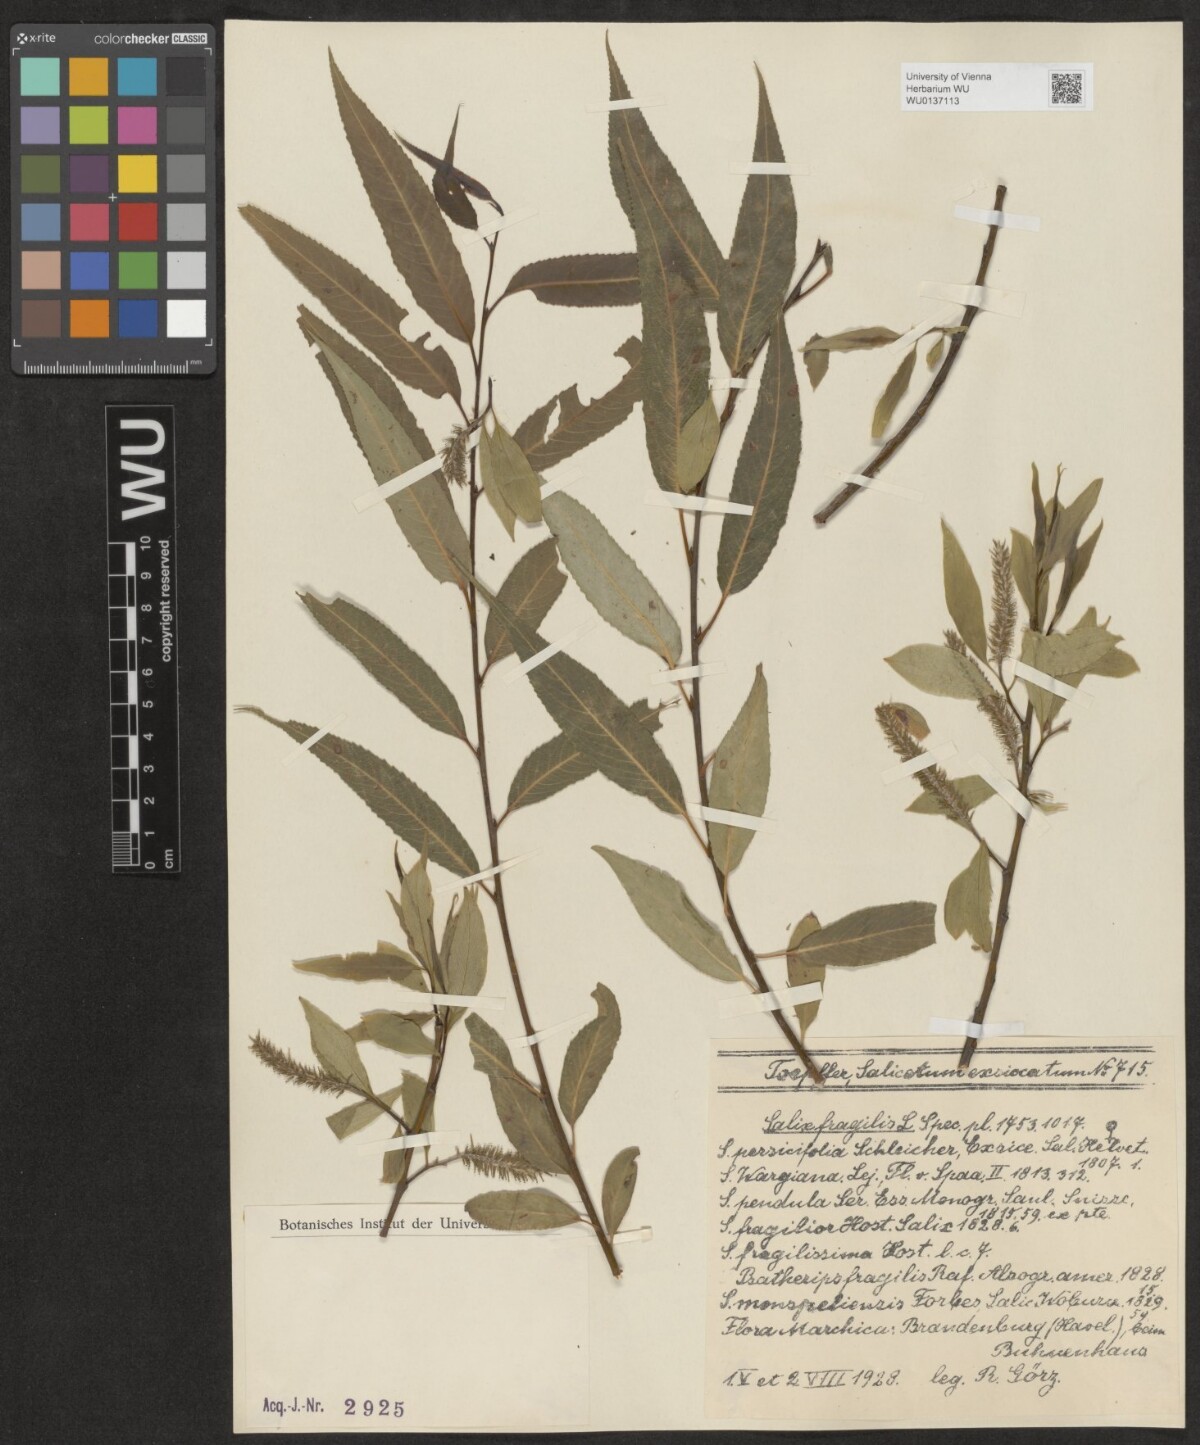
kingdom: Plantae
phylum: Tracheophyta
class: Magnoliopsida
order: Malpighiales
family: Salicaceae
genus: Salix
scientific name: Salix fragilis
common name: Crack willow
